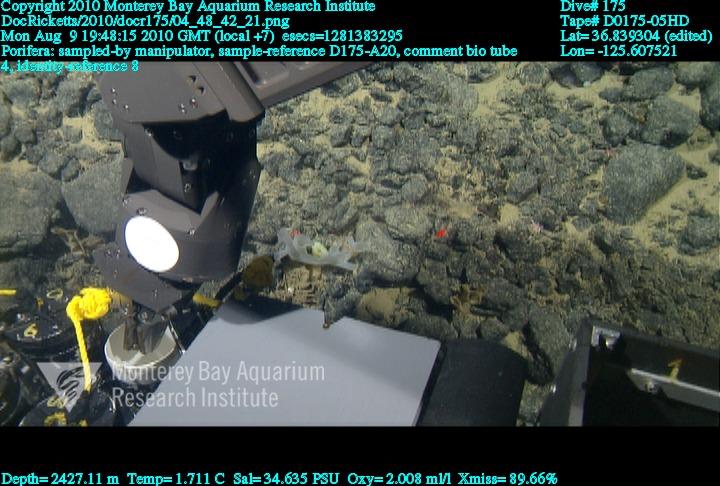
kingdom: Animalia
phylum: Porifera
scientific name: Porifera
